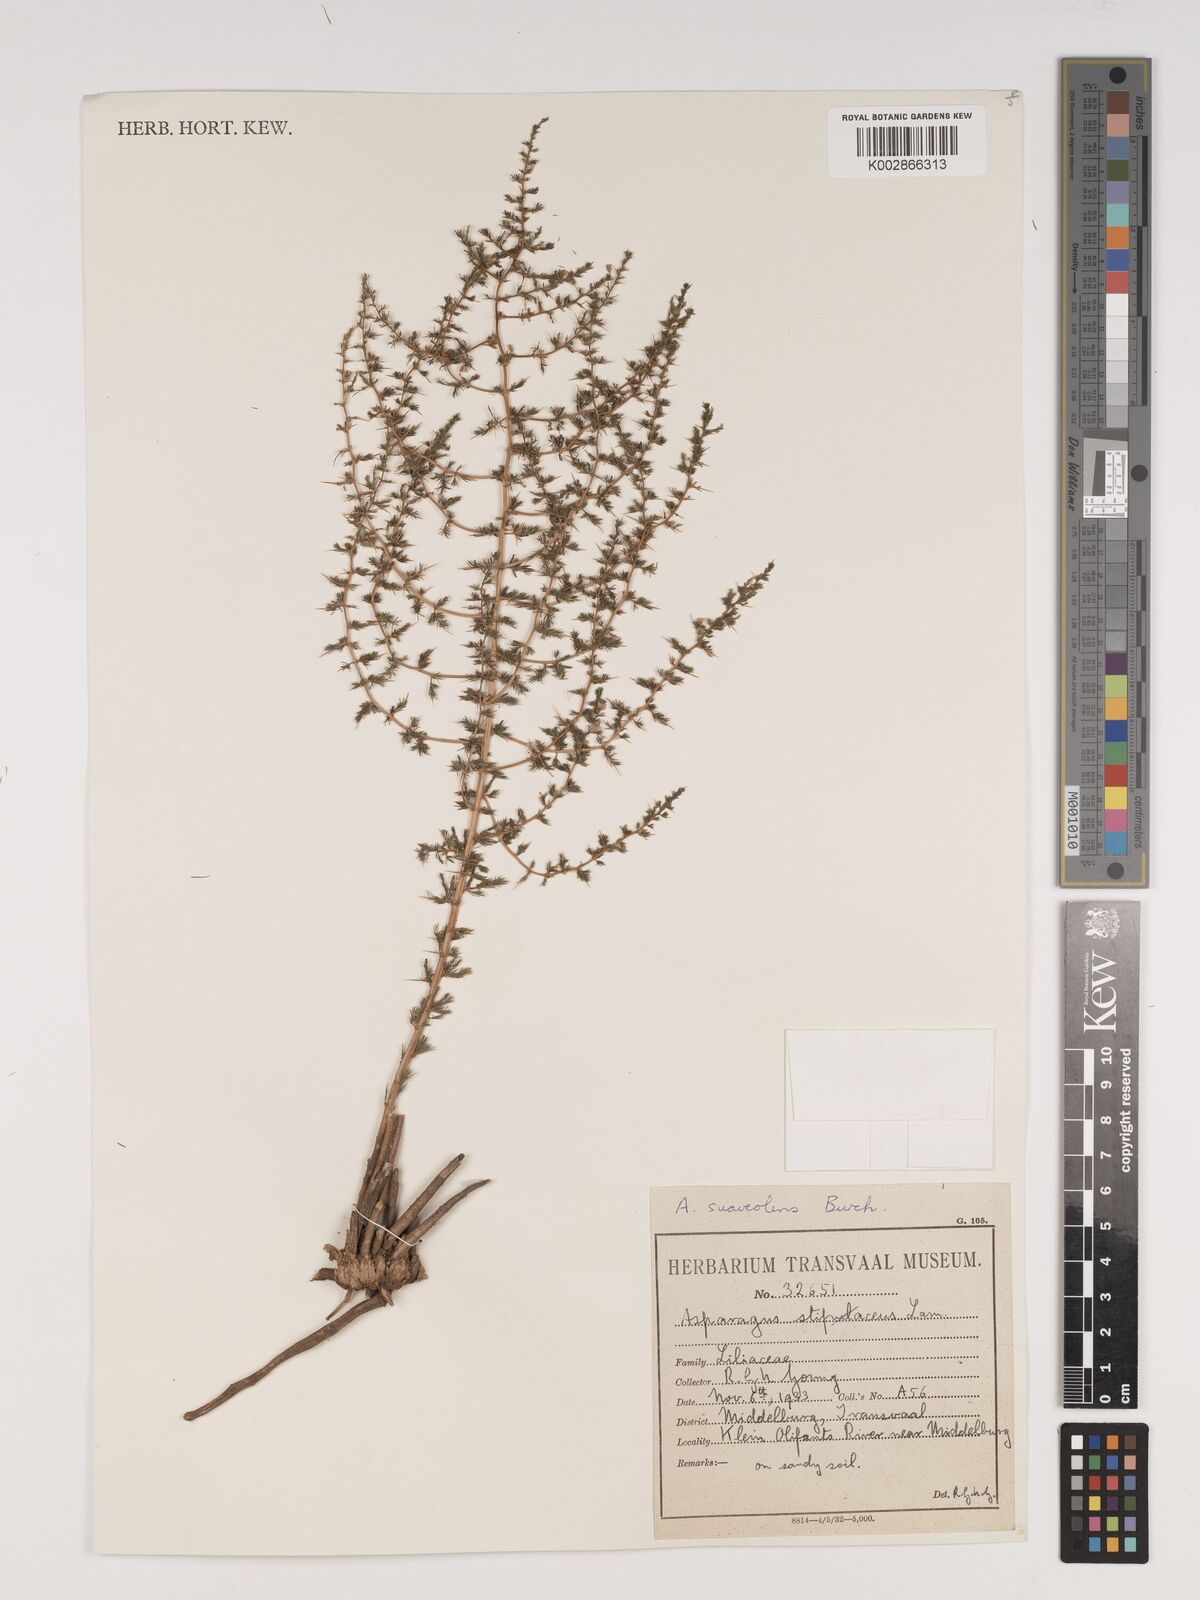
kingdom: Plantae
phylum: Tracheophyta
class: Liliopsida
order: Asparagales
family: Asparagaceae
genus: Asparagus
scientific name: Asparagus suaveolens
